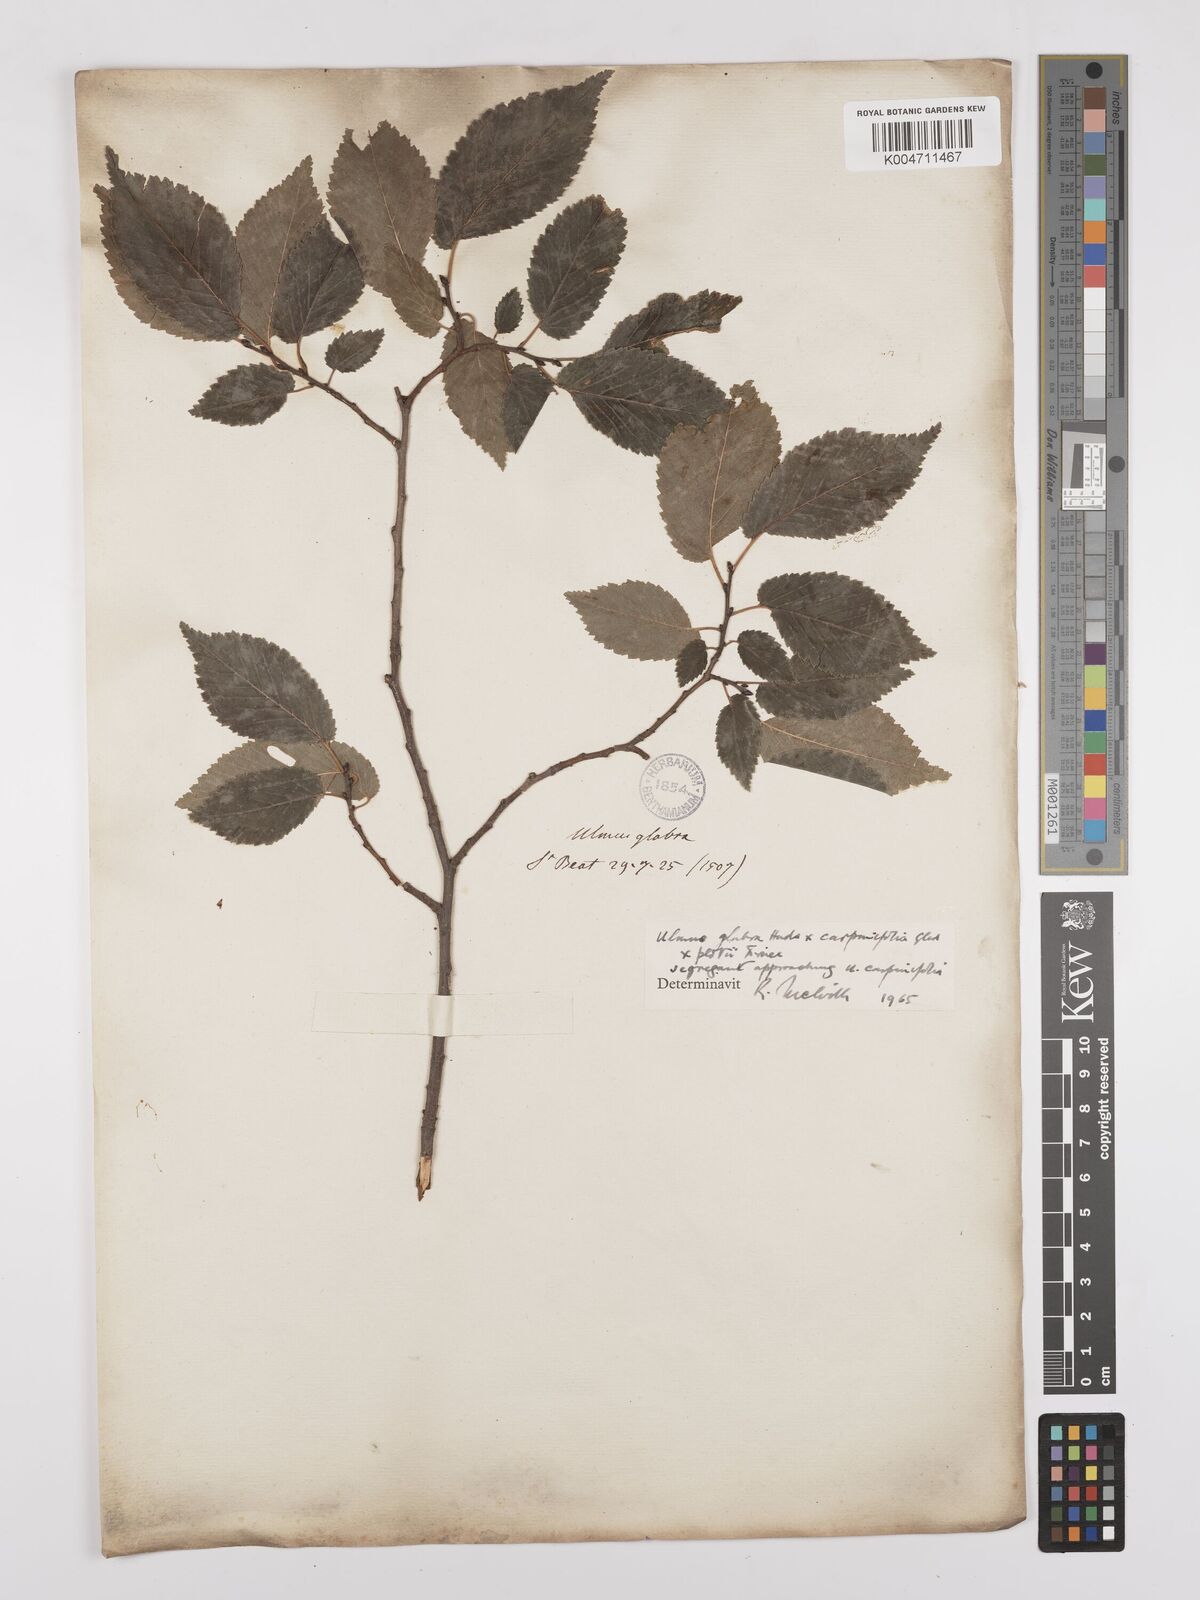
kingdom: Plantae
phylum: Tracheophyta
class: Magnoliopsida
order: Rosales
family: Ulmaceae
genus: Ulmus
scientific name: Ulmus minor
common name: Small-leaved elm
